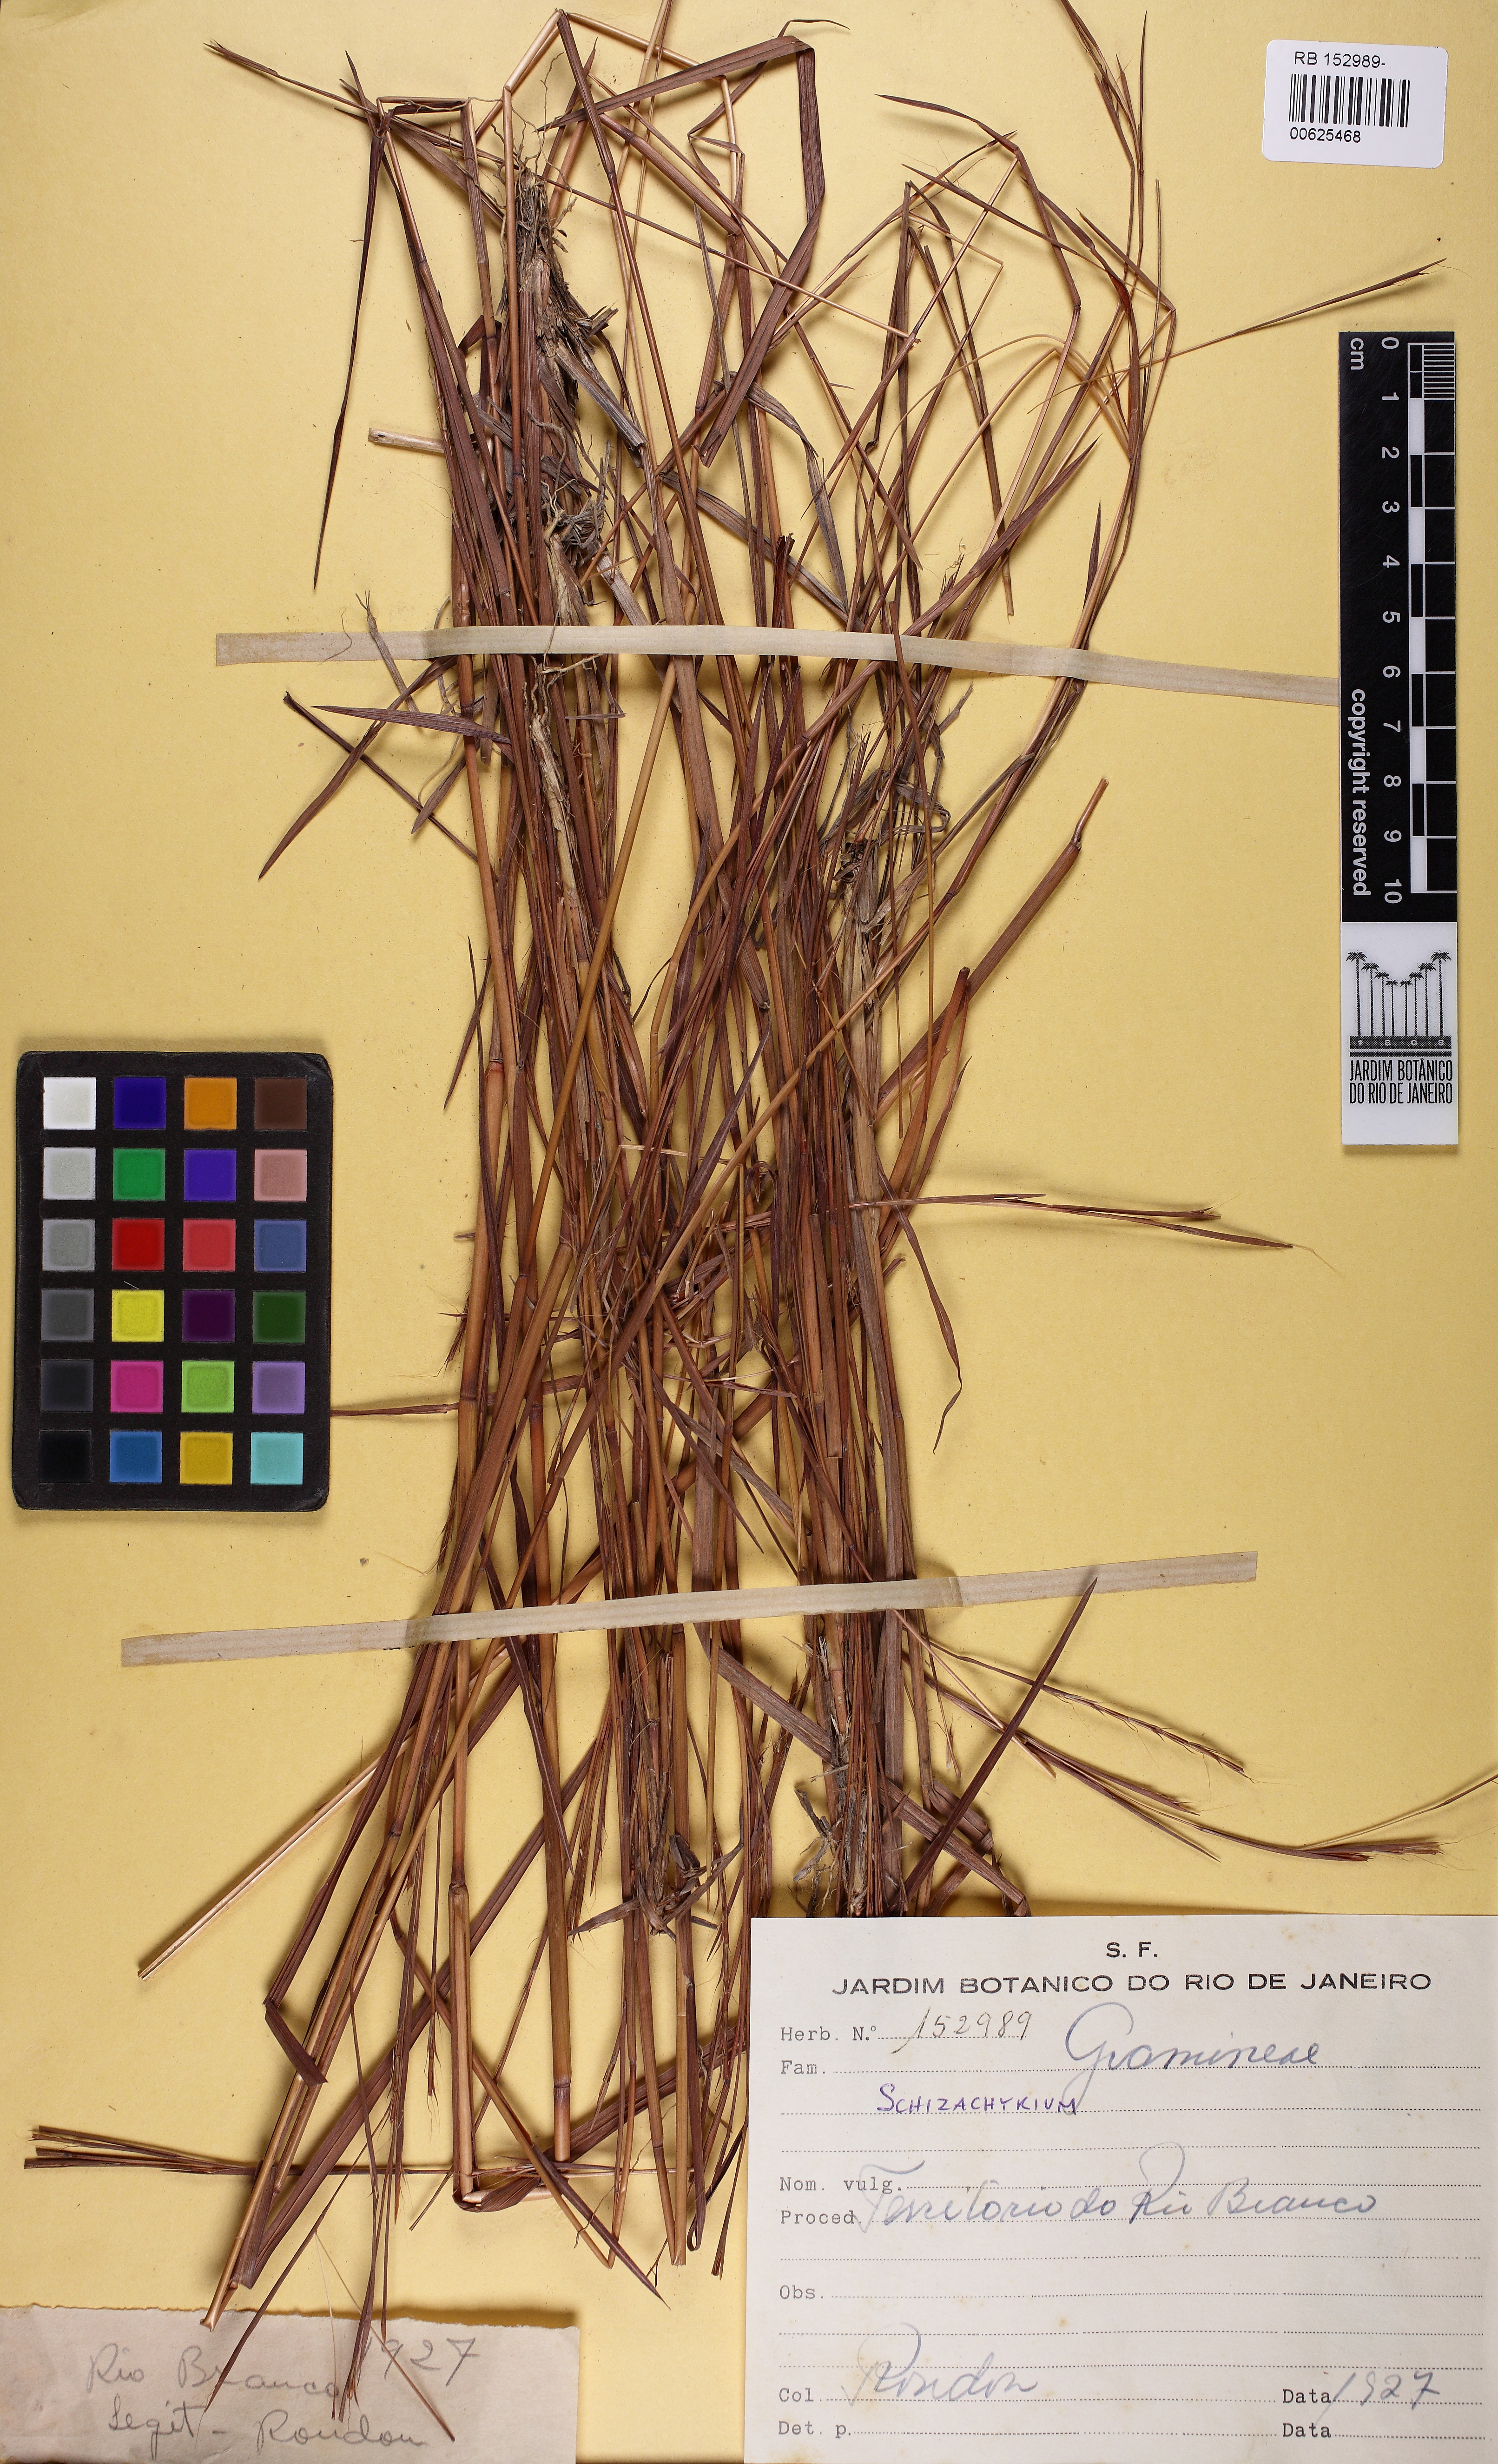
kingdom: Plantae
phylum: Tracheophyta
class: Liliopsida
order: Poales
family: Poaceae
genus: Schizachyrium
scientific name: Schizachyrium
